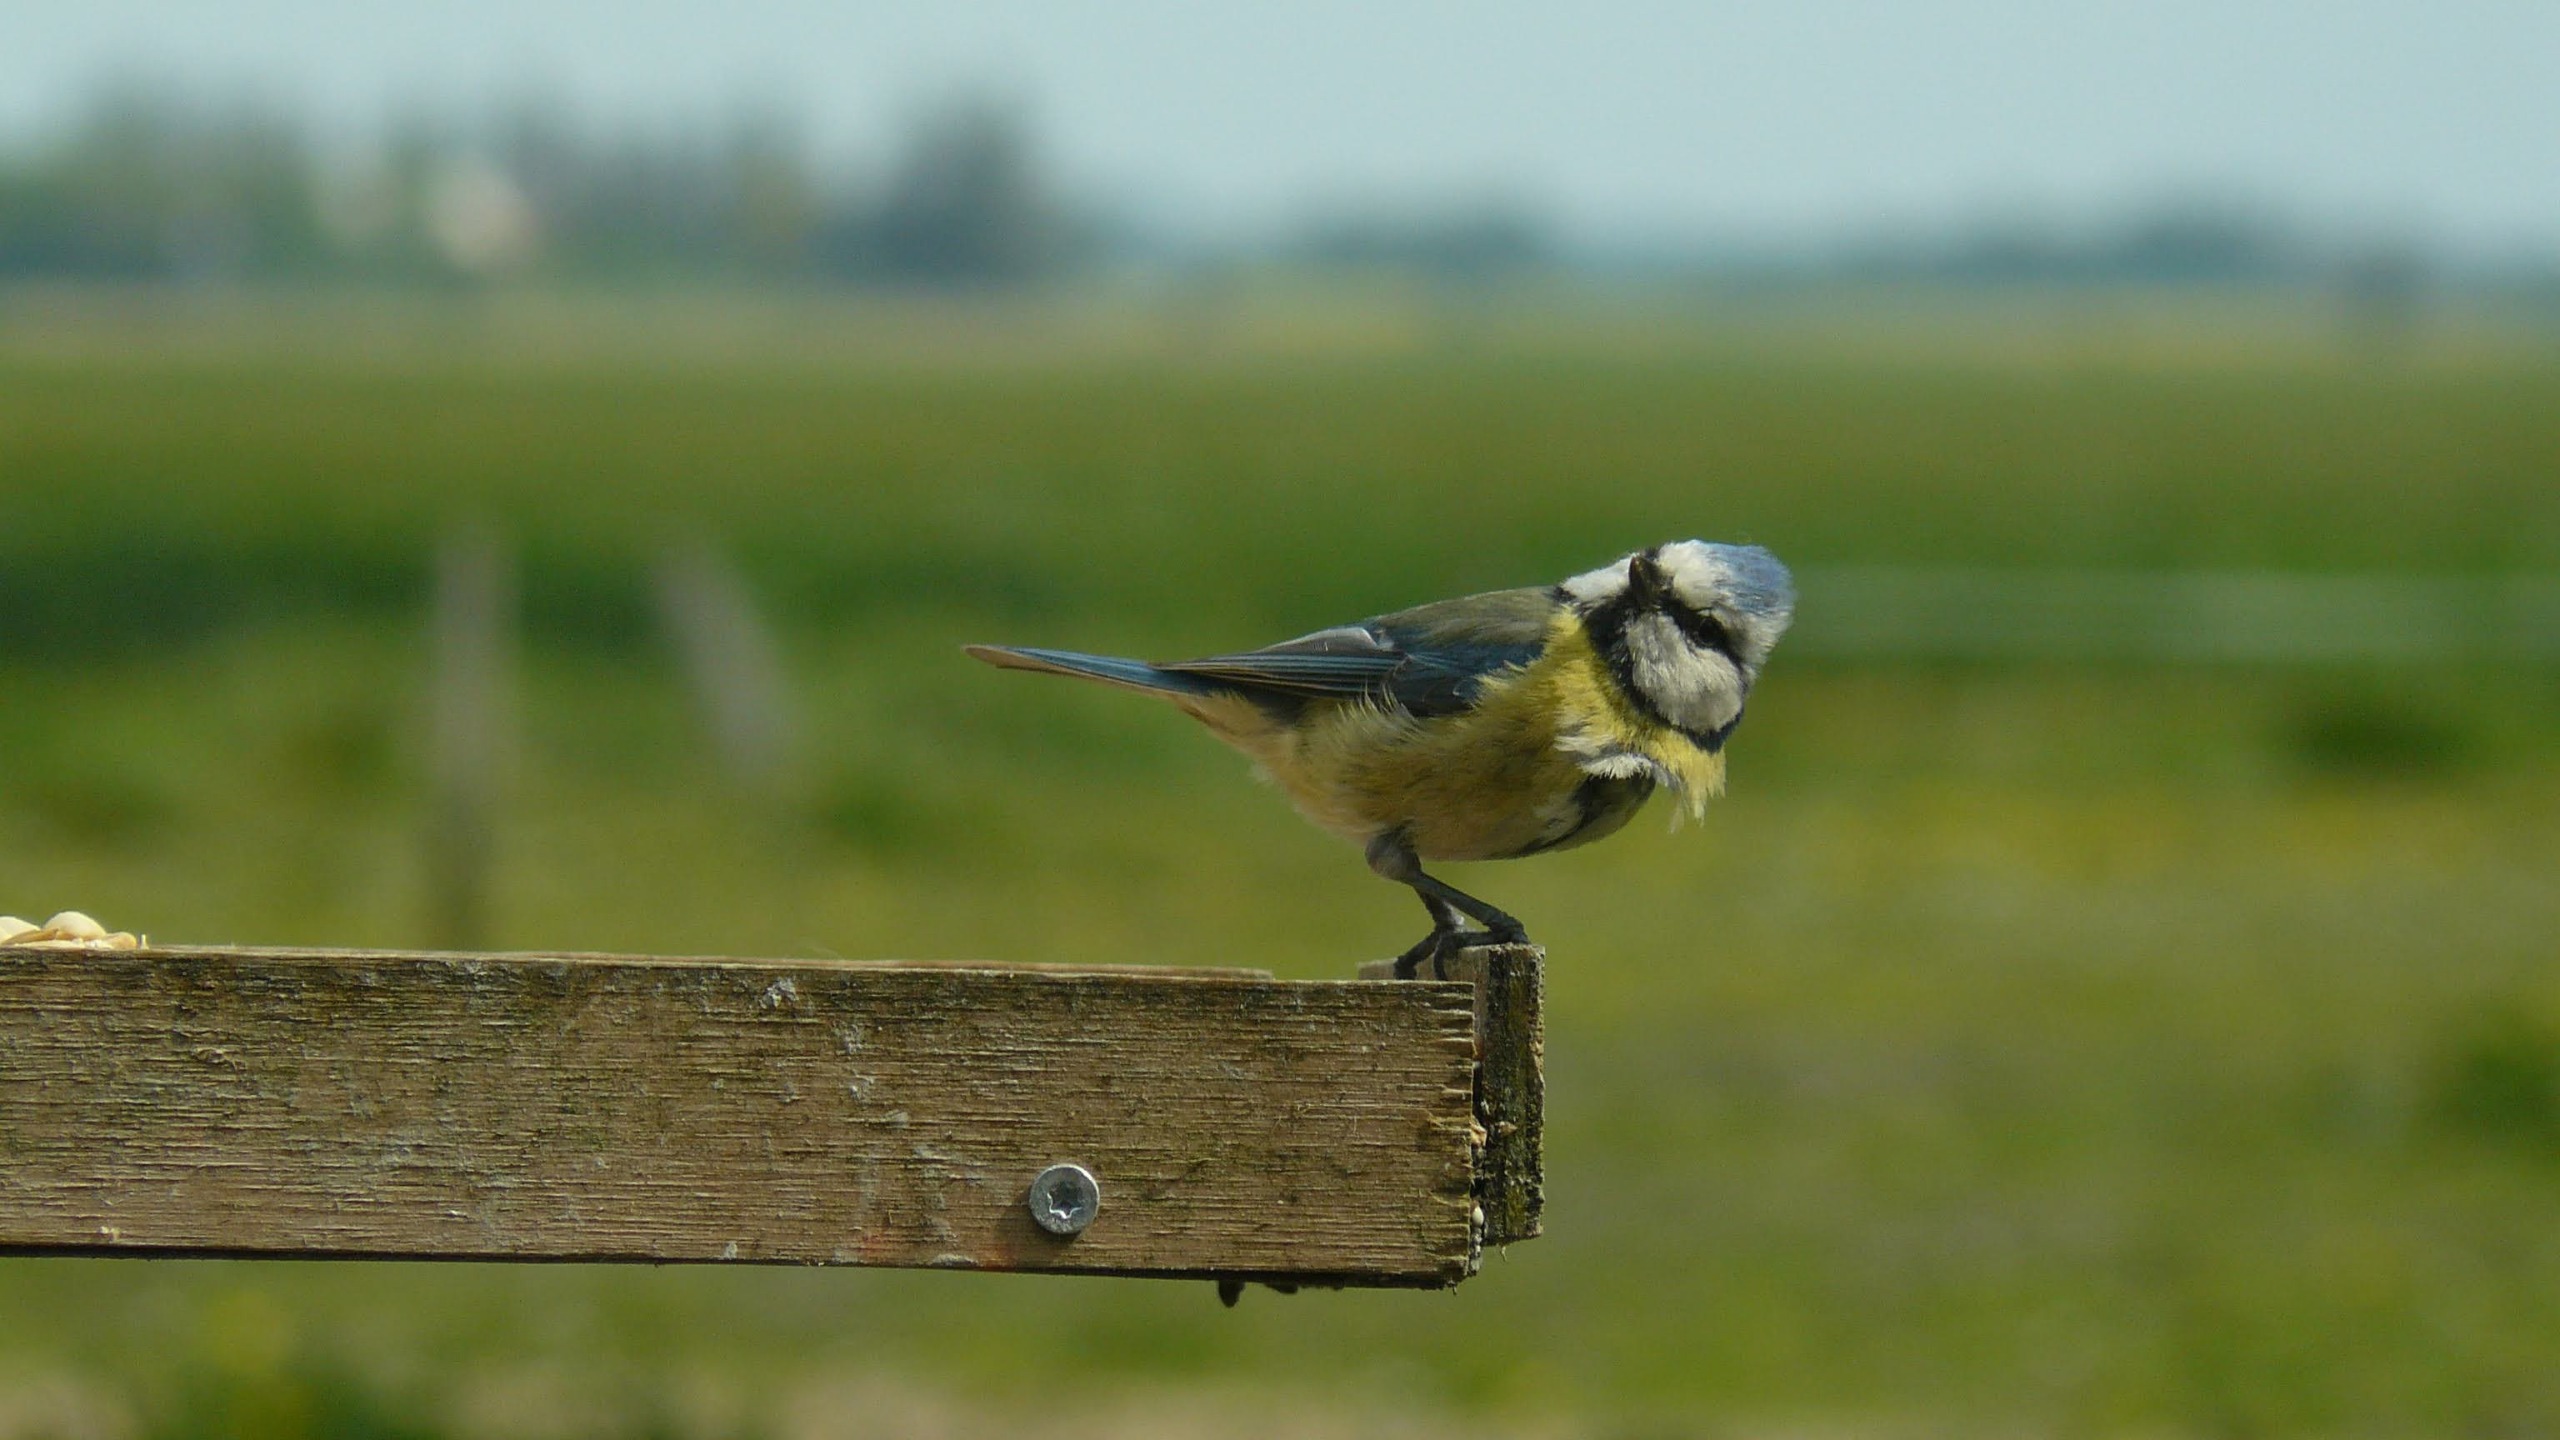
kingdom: Animalia
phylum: Chordata
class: Aves
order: Passeriformes
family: Paridae
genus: Cyanistes
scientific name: Cyanistes caeruleus
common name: Blåmejse
